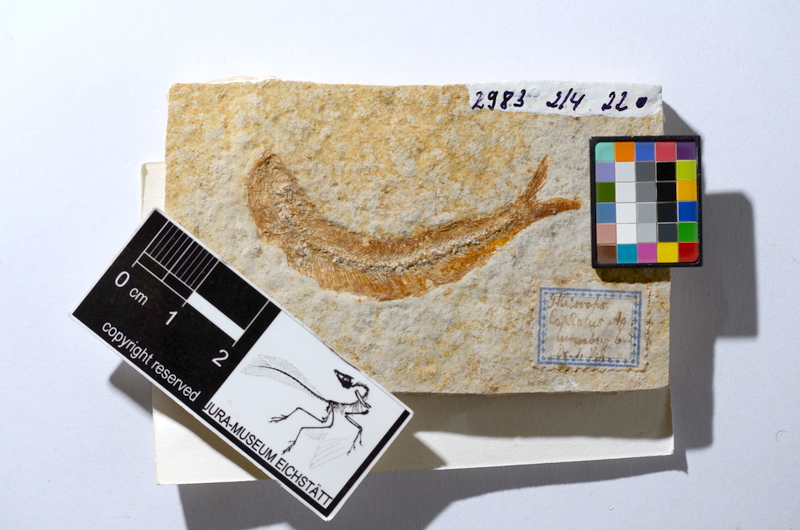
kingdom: Animalia
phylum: Chordata
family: Allothrissopidae
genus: Allothrissops
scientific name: Allothrissops mesogaster
